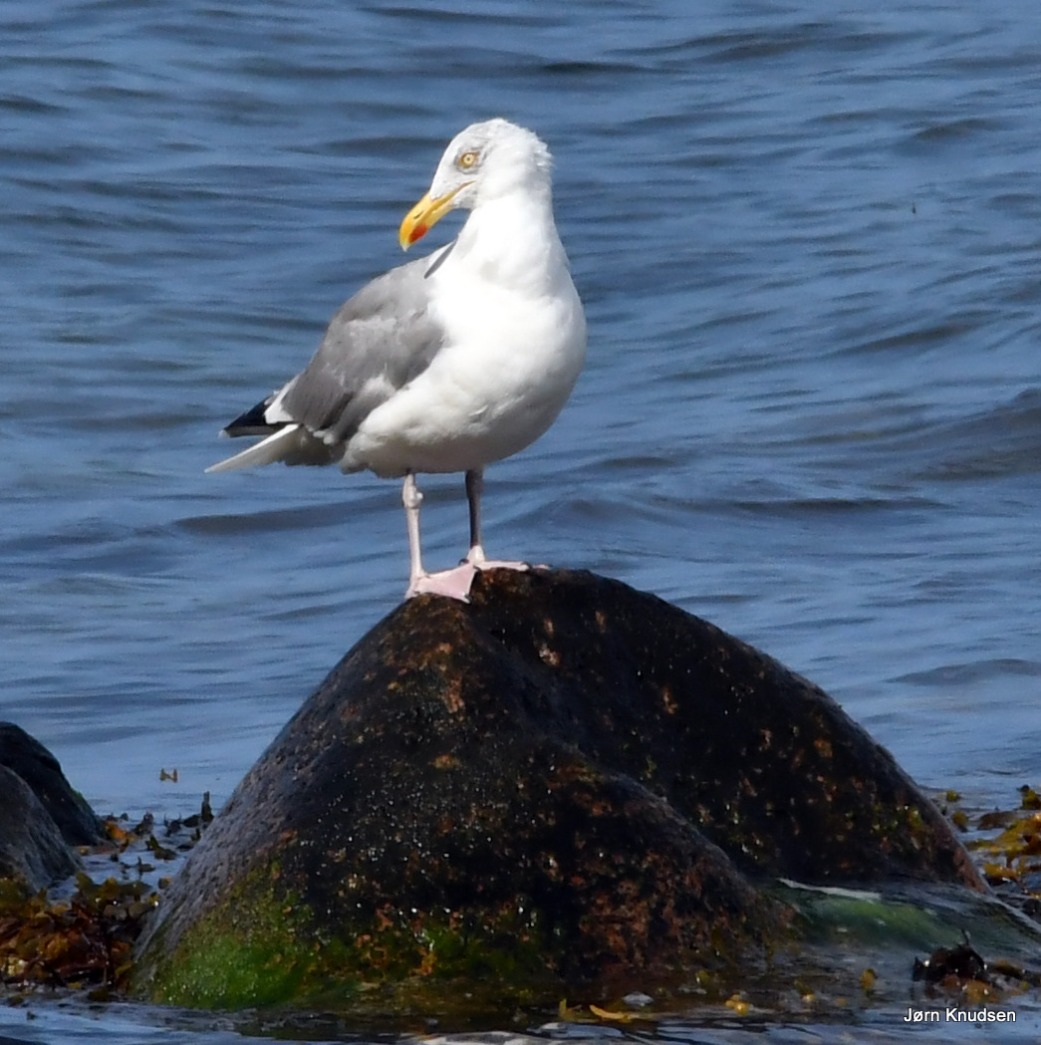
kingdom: Animalia
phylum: Chordata
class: Aves
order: Charadriiformes
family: Laridae
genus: Larus
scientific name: Larus argentatus
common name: Sølvmåge
